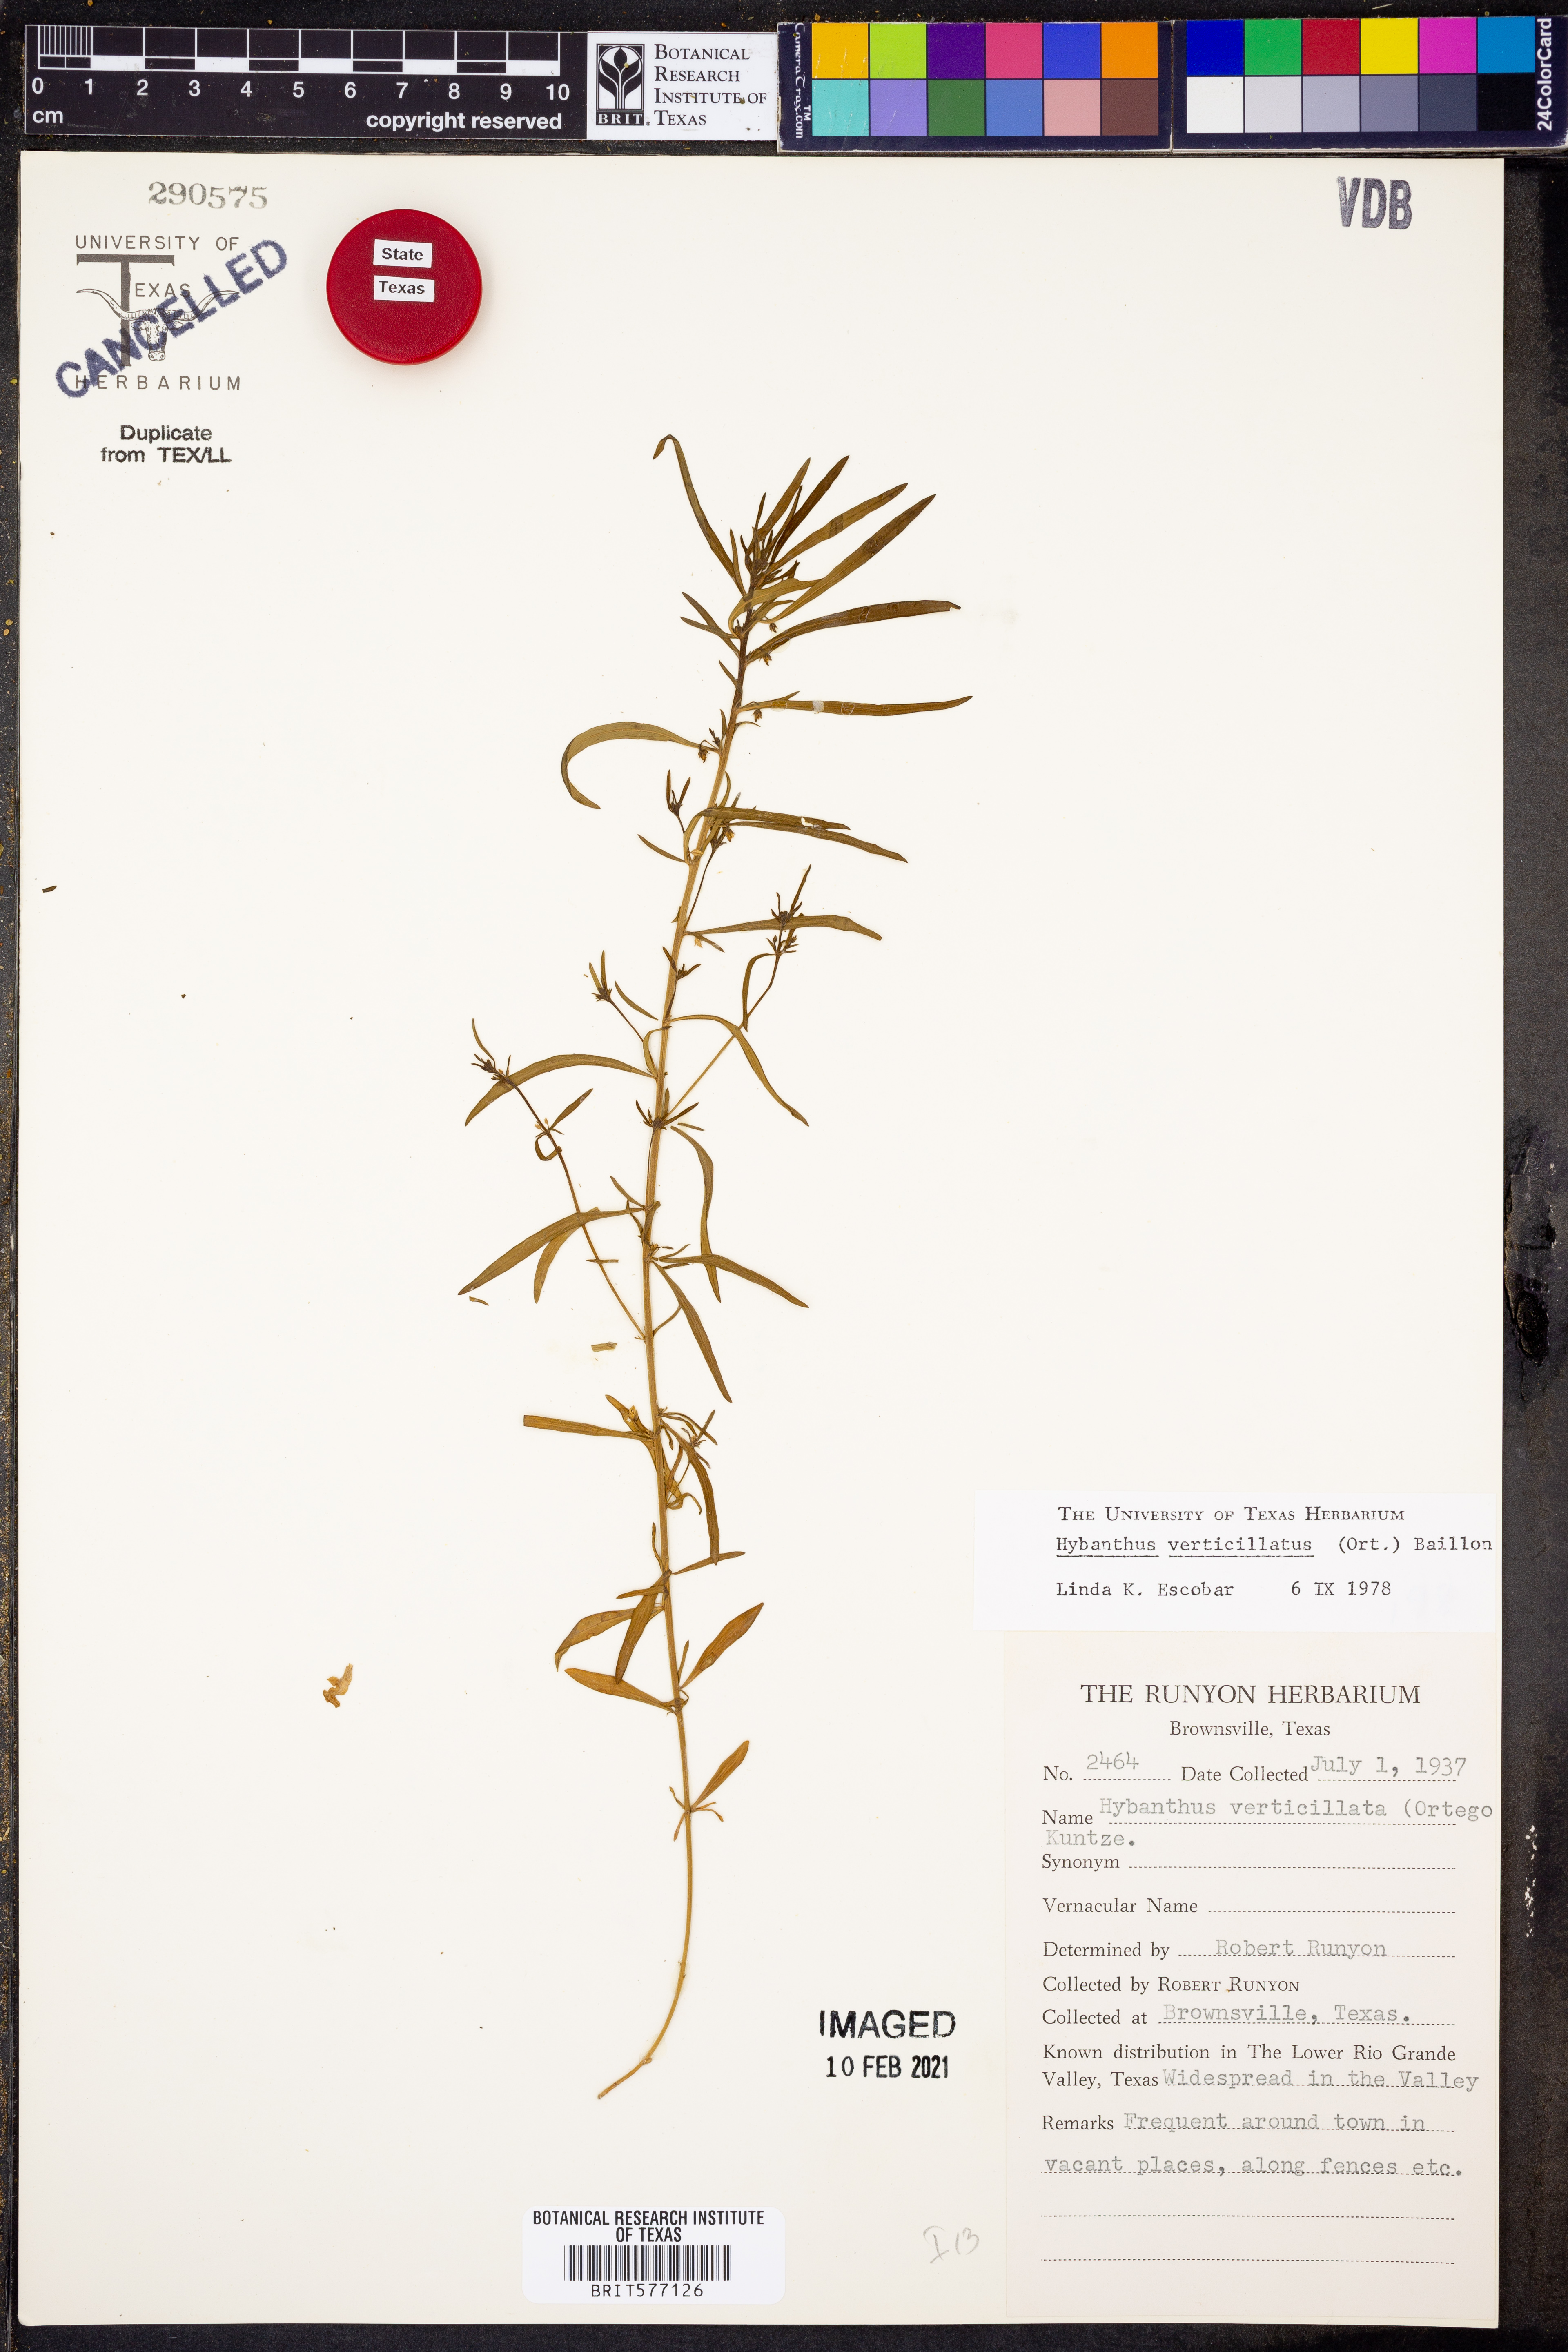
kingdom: Plantae
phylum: Tracheophyta
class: Magnoliopsida
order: Malpighiales
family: Violaceae
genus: Pombalia
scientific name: Pombalia verticillata
